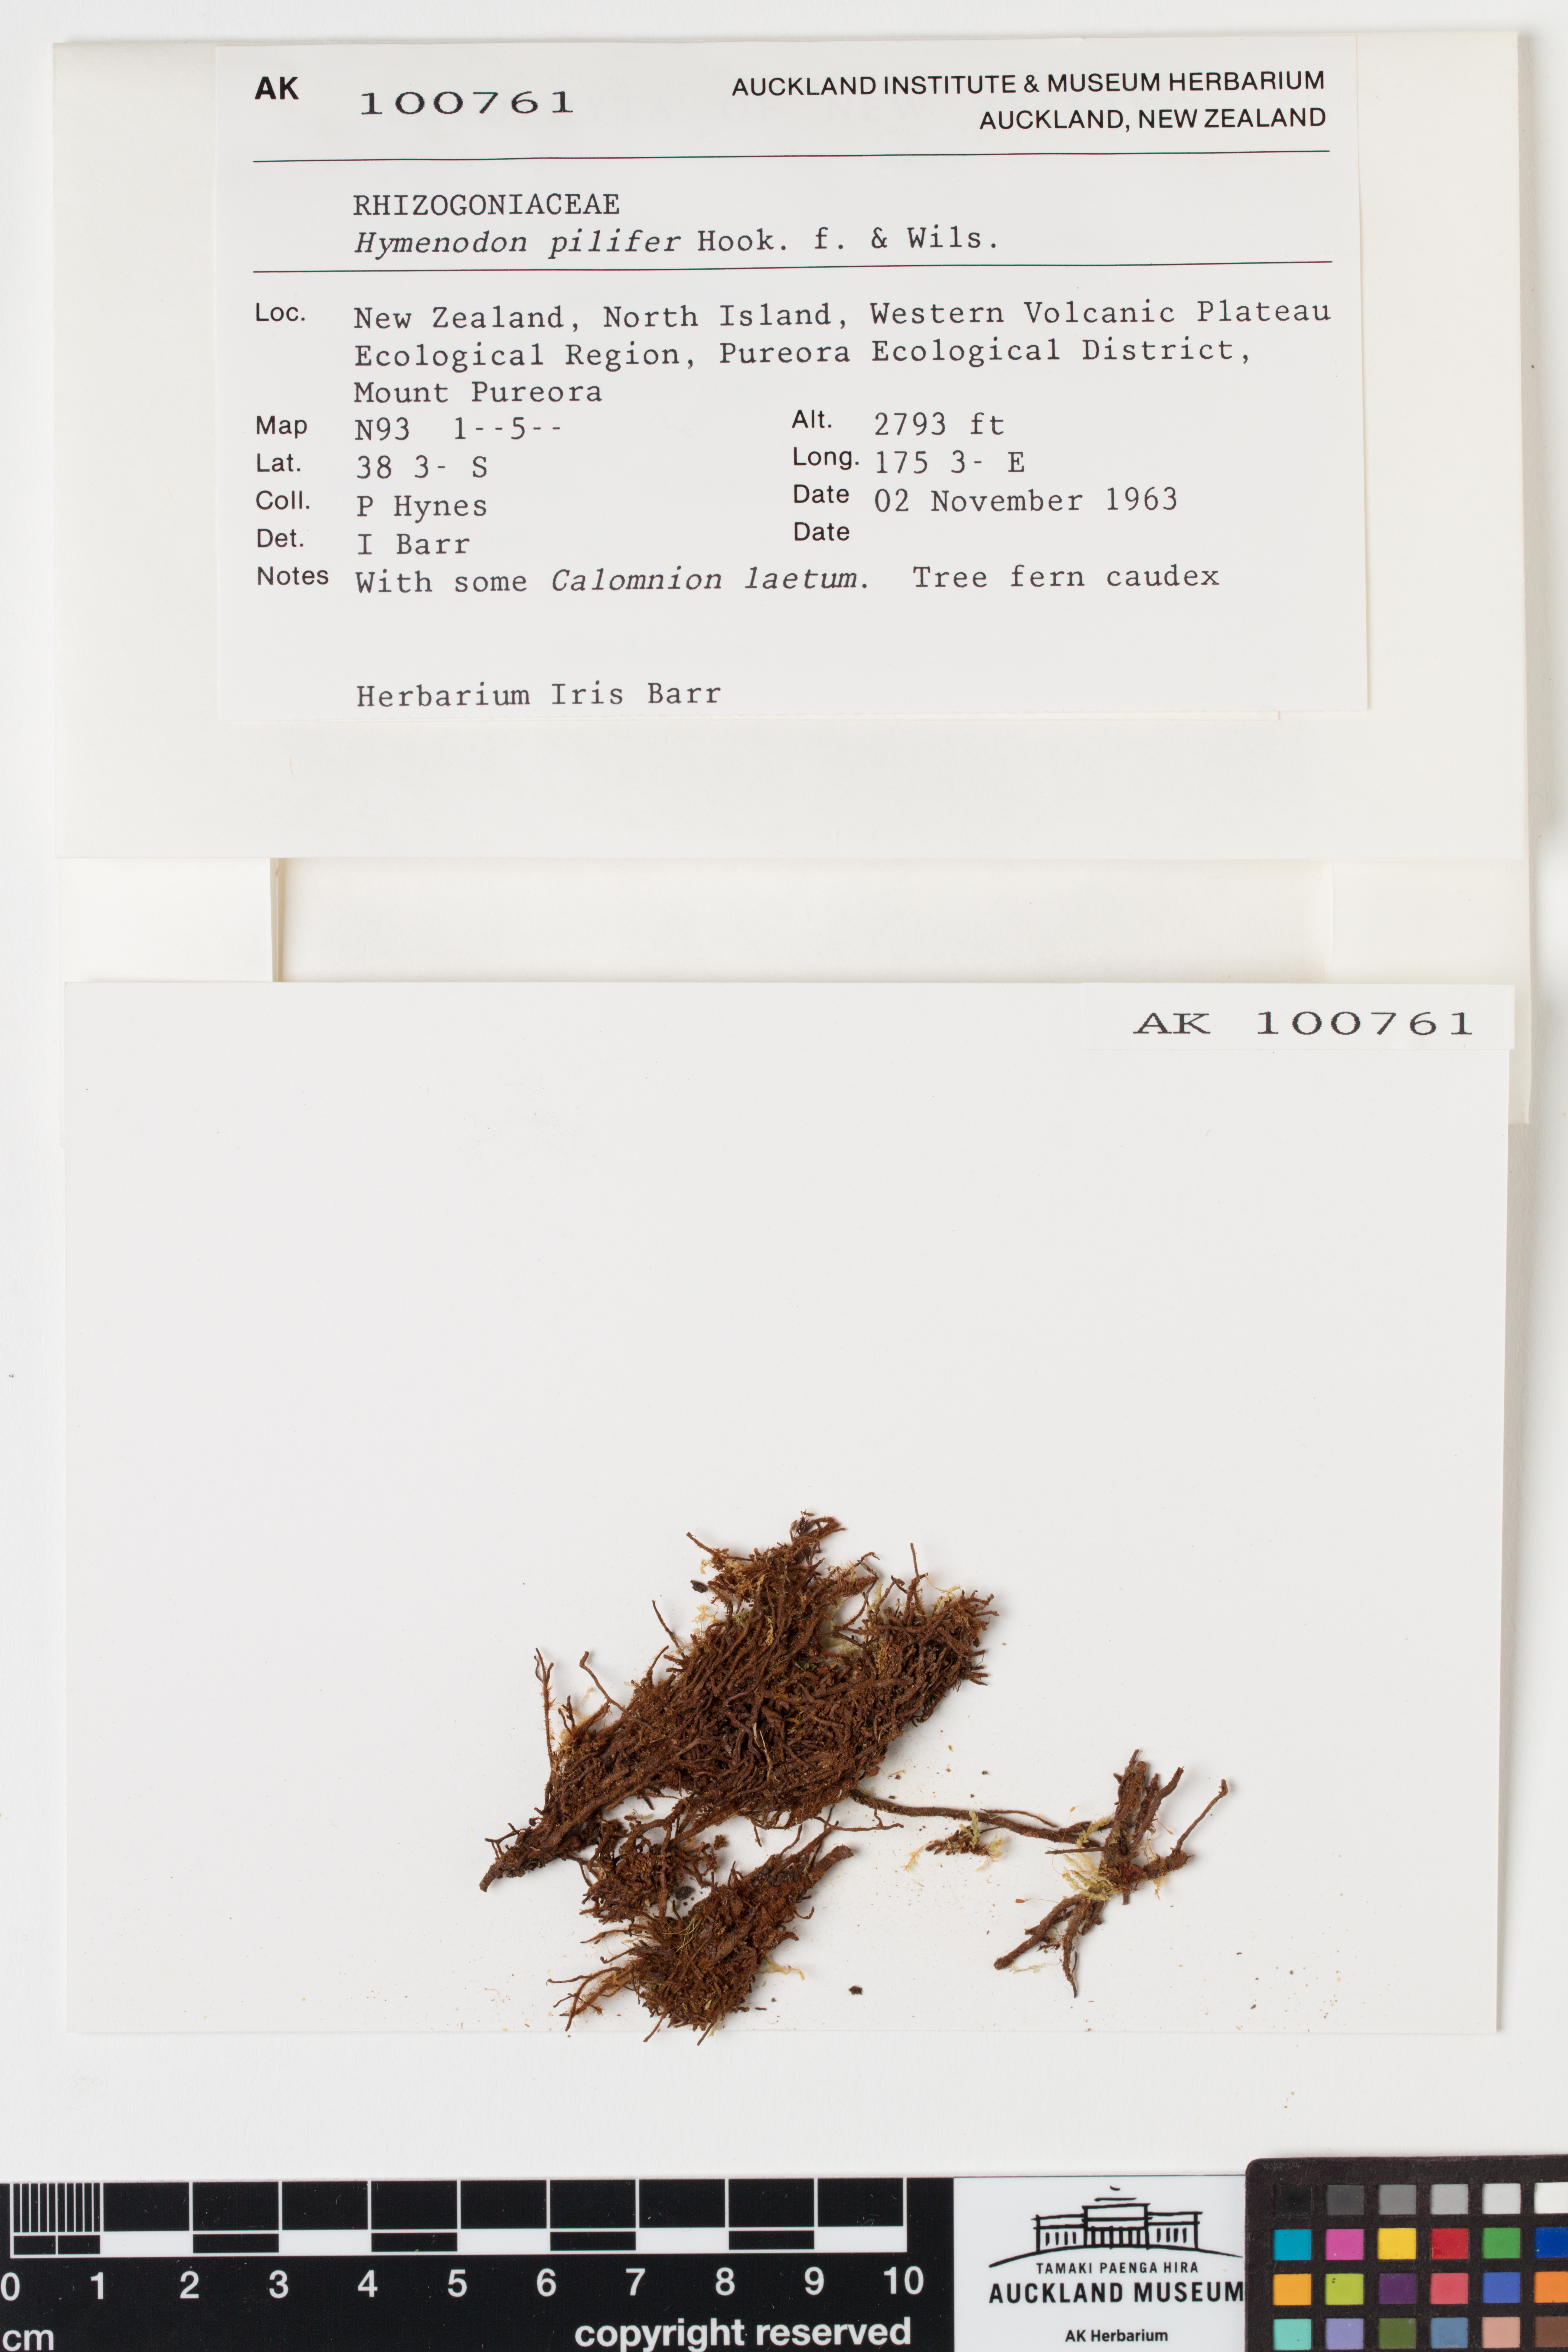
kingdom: Plantae
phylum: Bryophyta
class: Bryopsida
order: Orthodontiales
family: Orthodontiaceae
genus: Hymenodon
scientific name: Hymenodon pilifer
